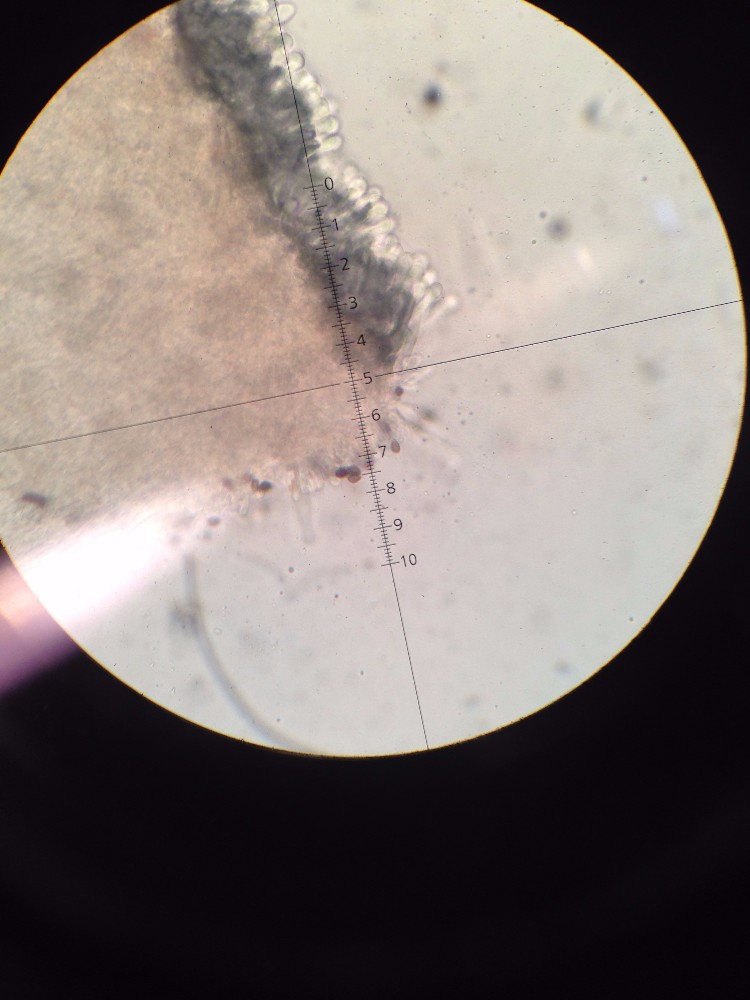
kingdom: Fungi
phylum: Basidiomycota
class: Agaricomycetes
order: Agaricales
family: Psathyrellaceae
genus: Lacrymaria
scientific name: Lacrymaria
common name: mørkhat
